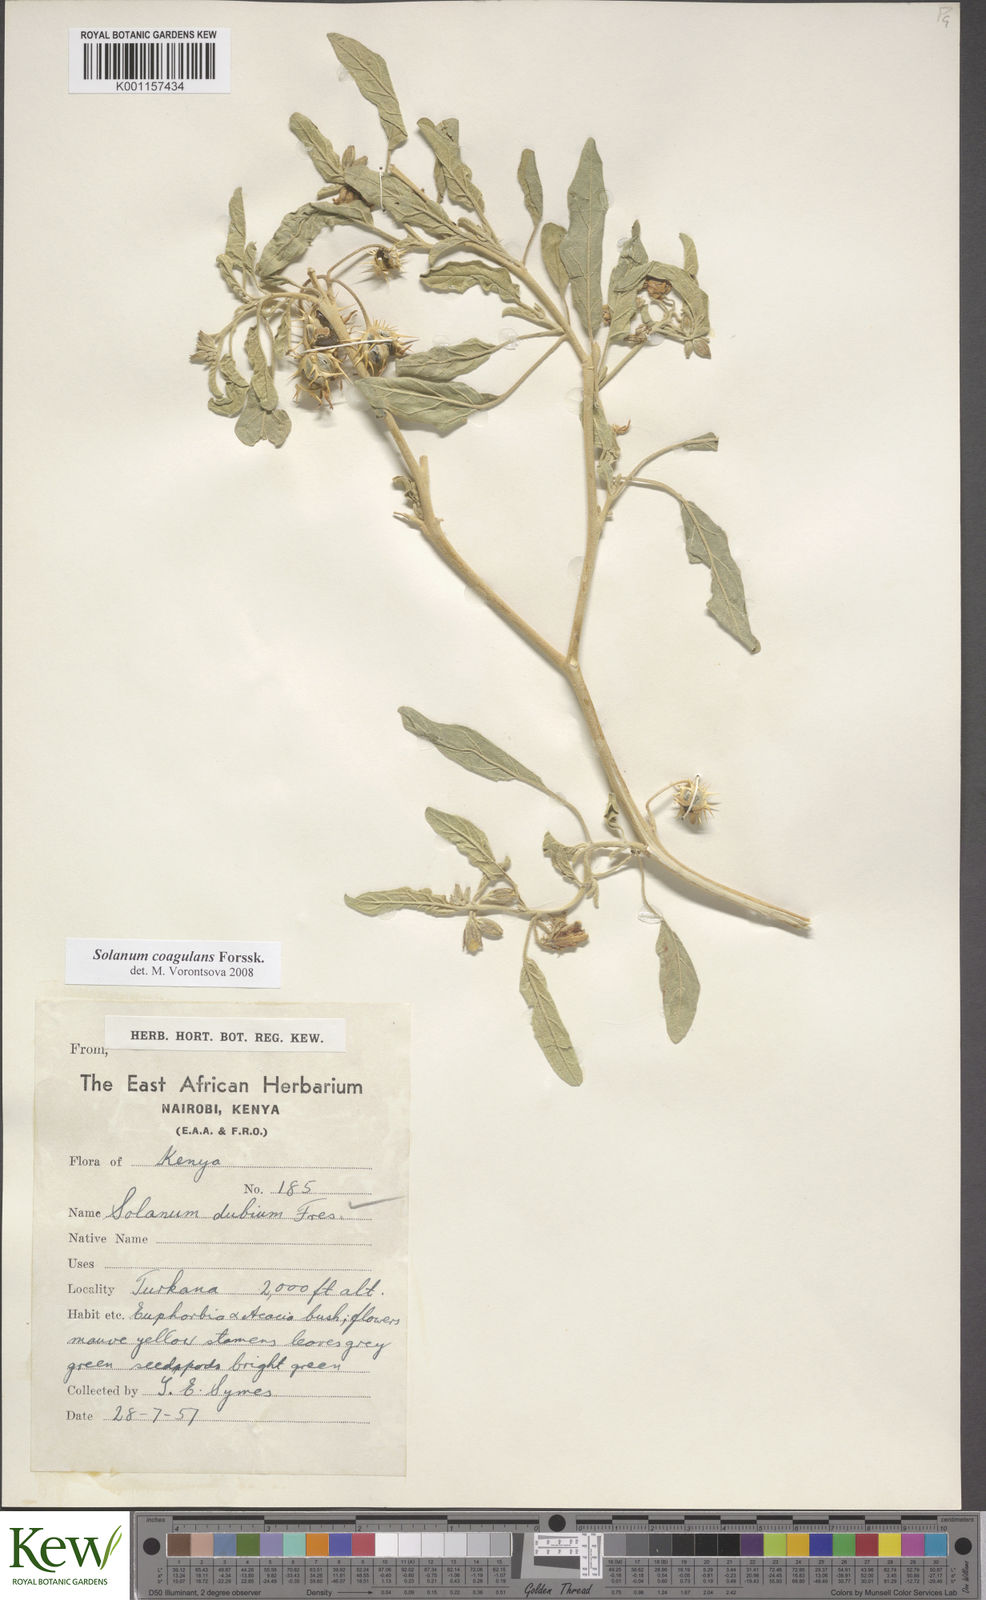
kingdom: Plantae
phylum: Tracheophyta
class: Magnoliopsida
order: Solanales
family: Solanaceae
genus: Solanum
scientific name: Solanum coagulans
